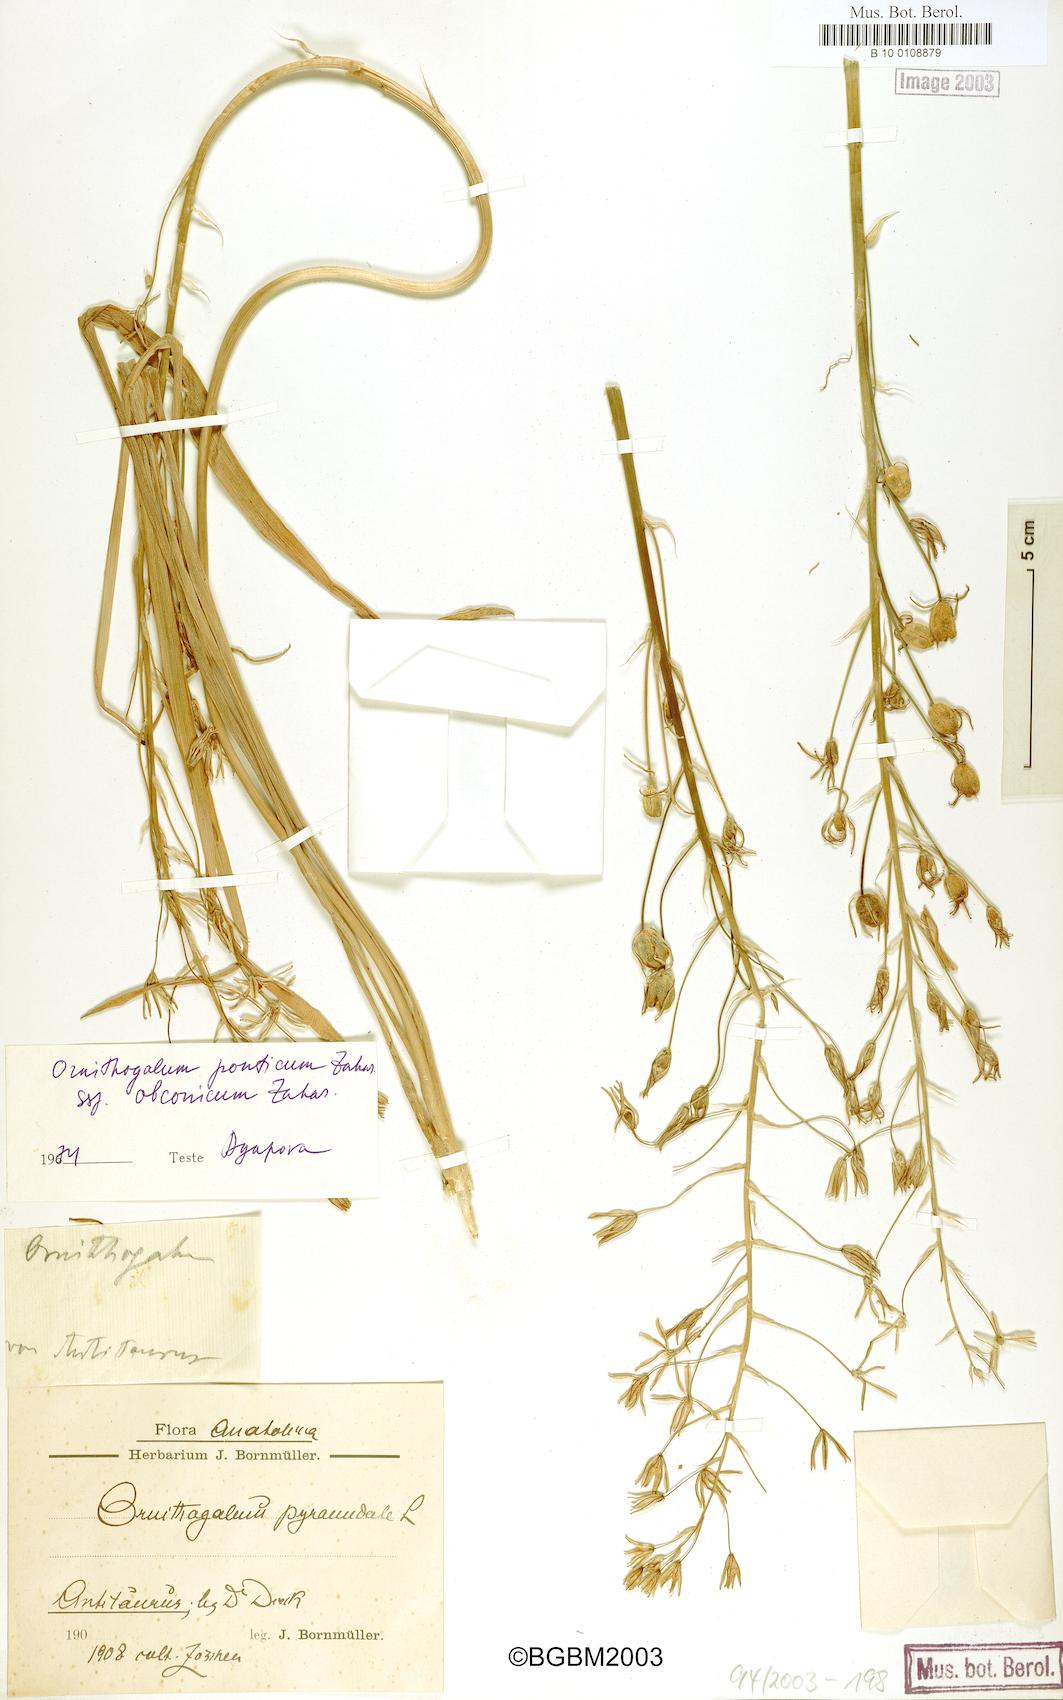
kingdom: Plantae
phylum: Tracheophyta
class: Liliopsida
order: Asparagales
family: Asparagaceae
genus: Ornithogalum
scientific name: Ornithogalum hajastanum
